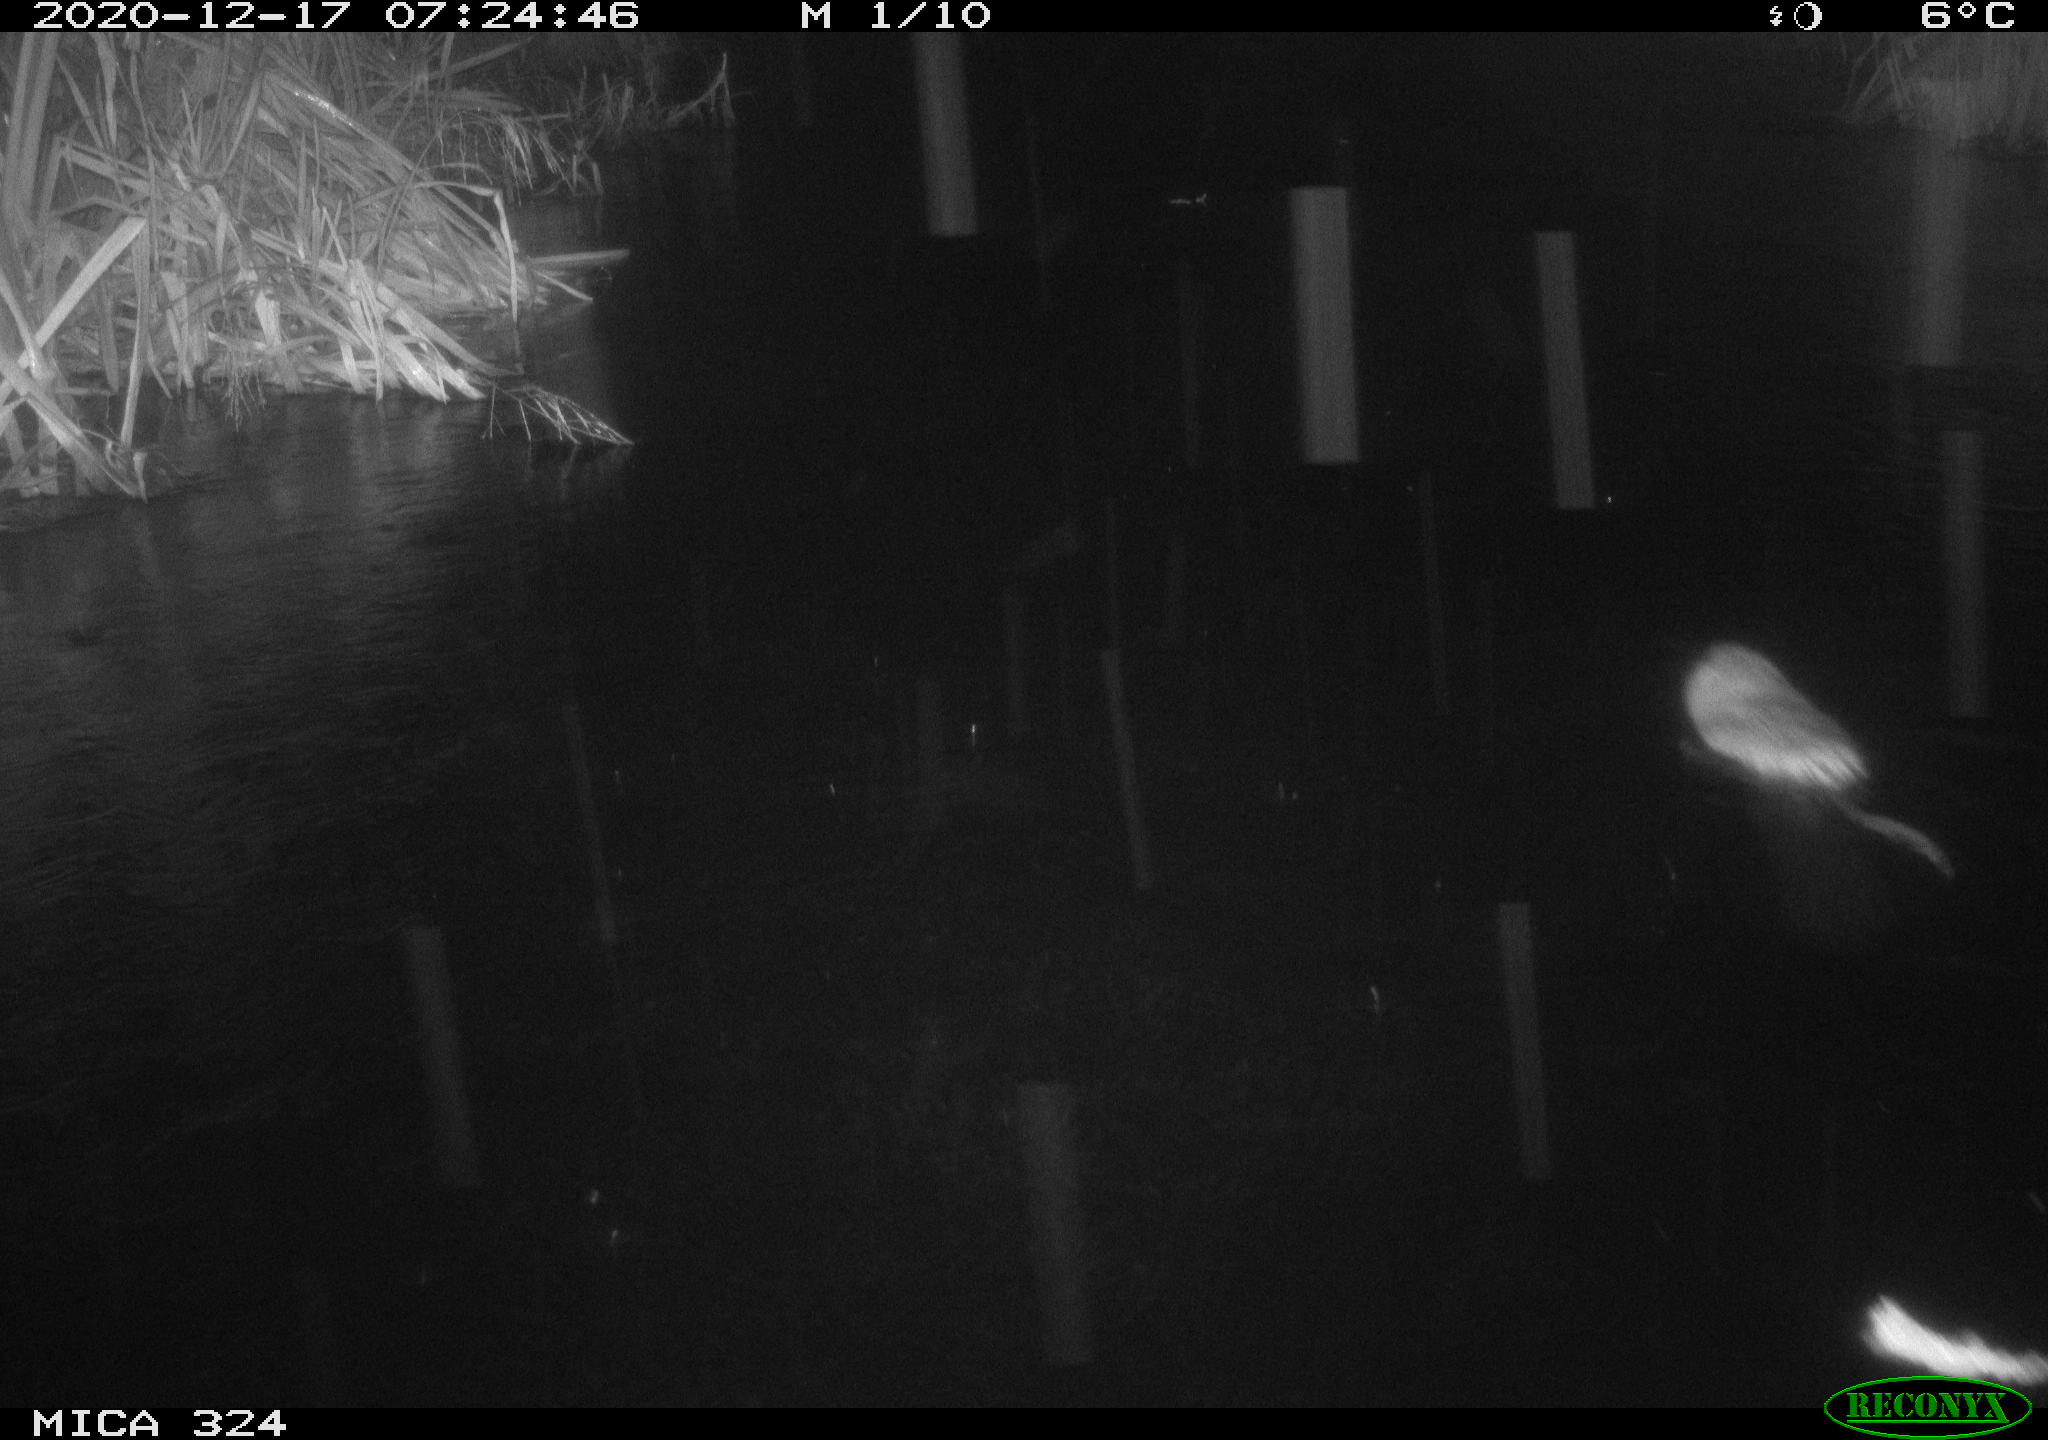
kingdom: Animalia
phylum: Chordata
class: Mammalia
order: Rodentia
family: Cricetidae
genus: Ondatra
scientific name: Ondatra zibethicus
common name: Muskrat
